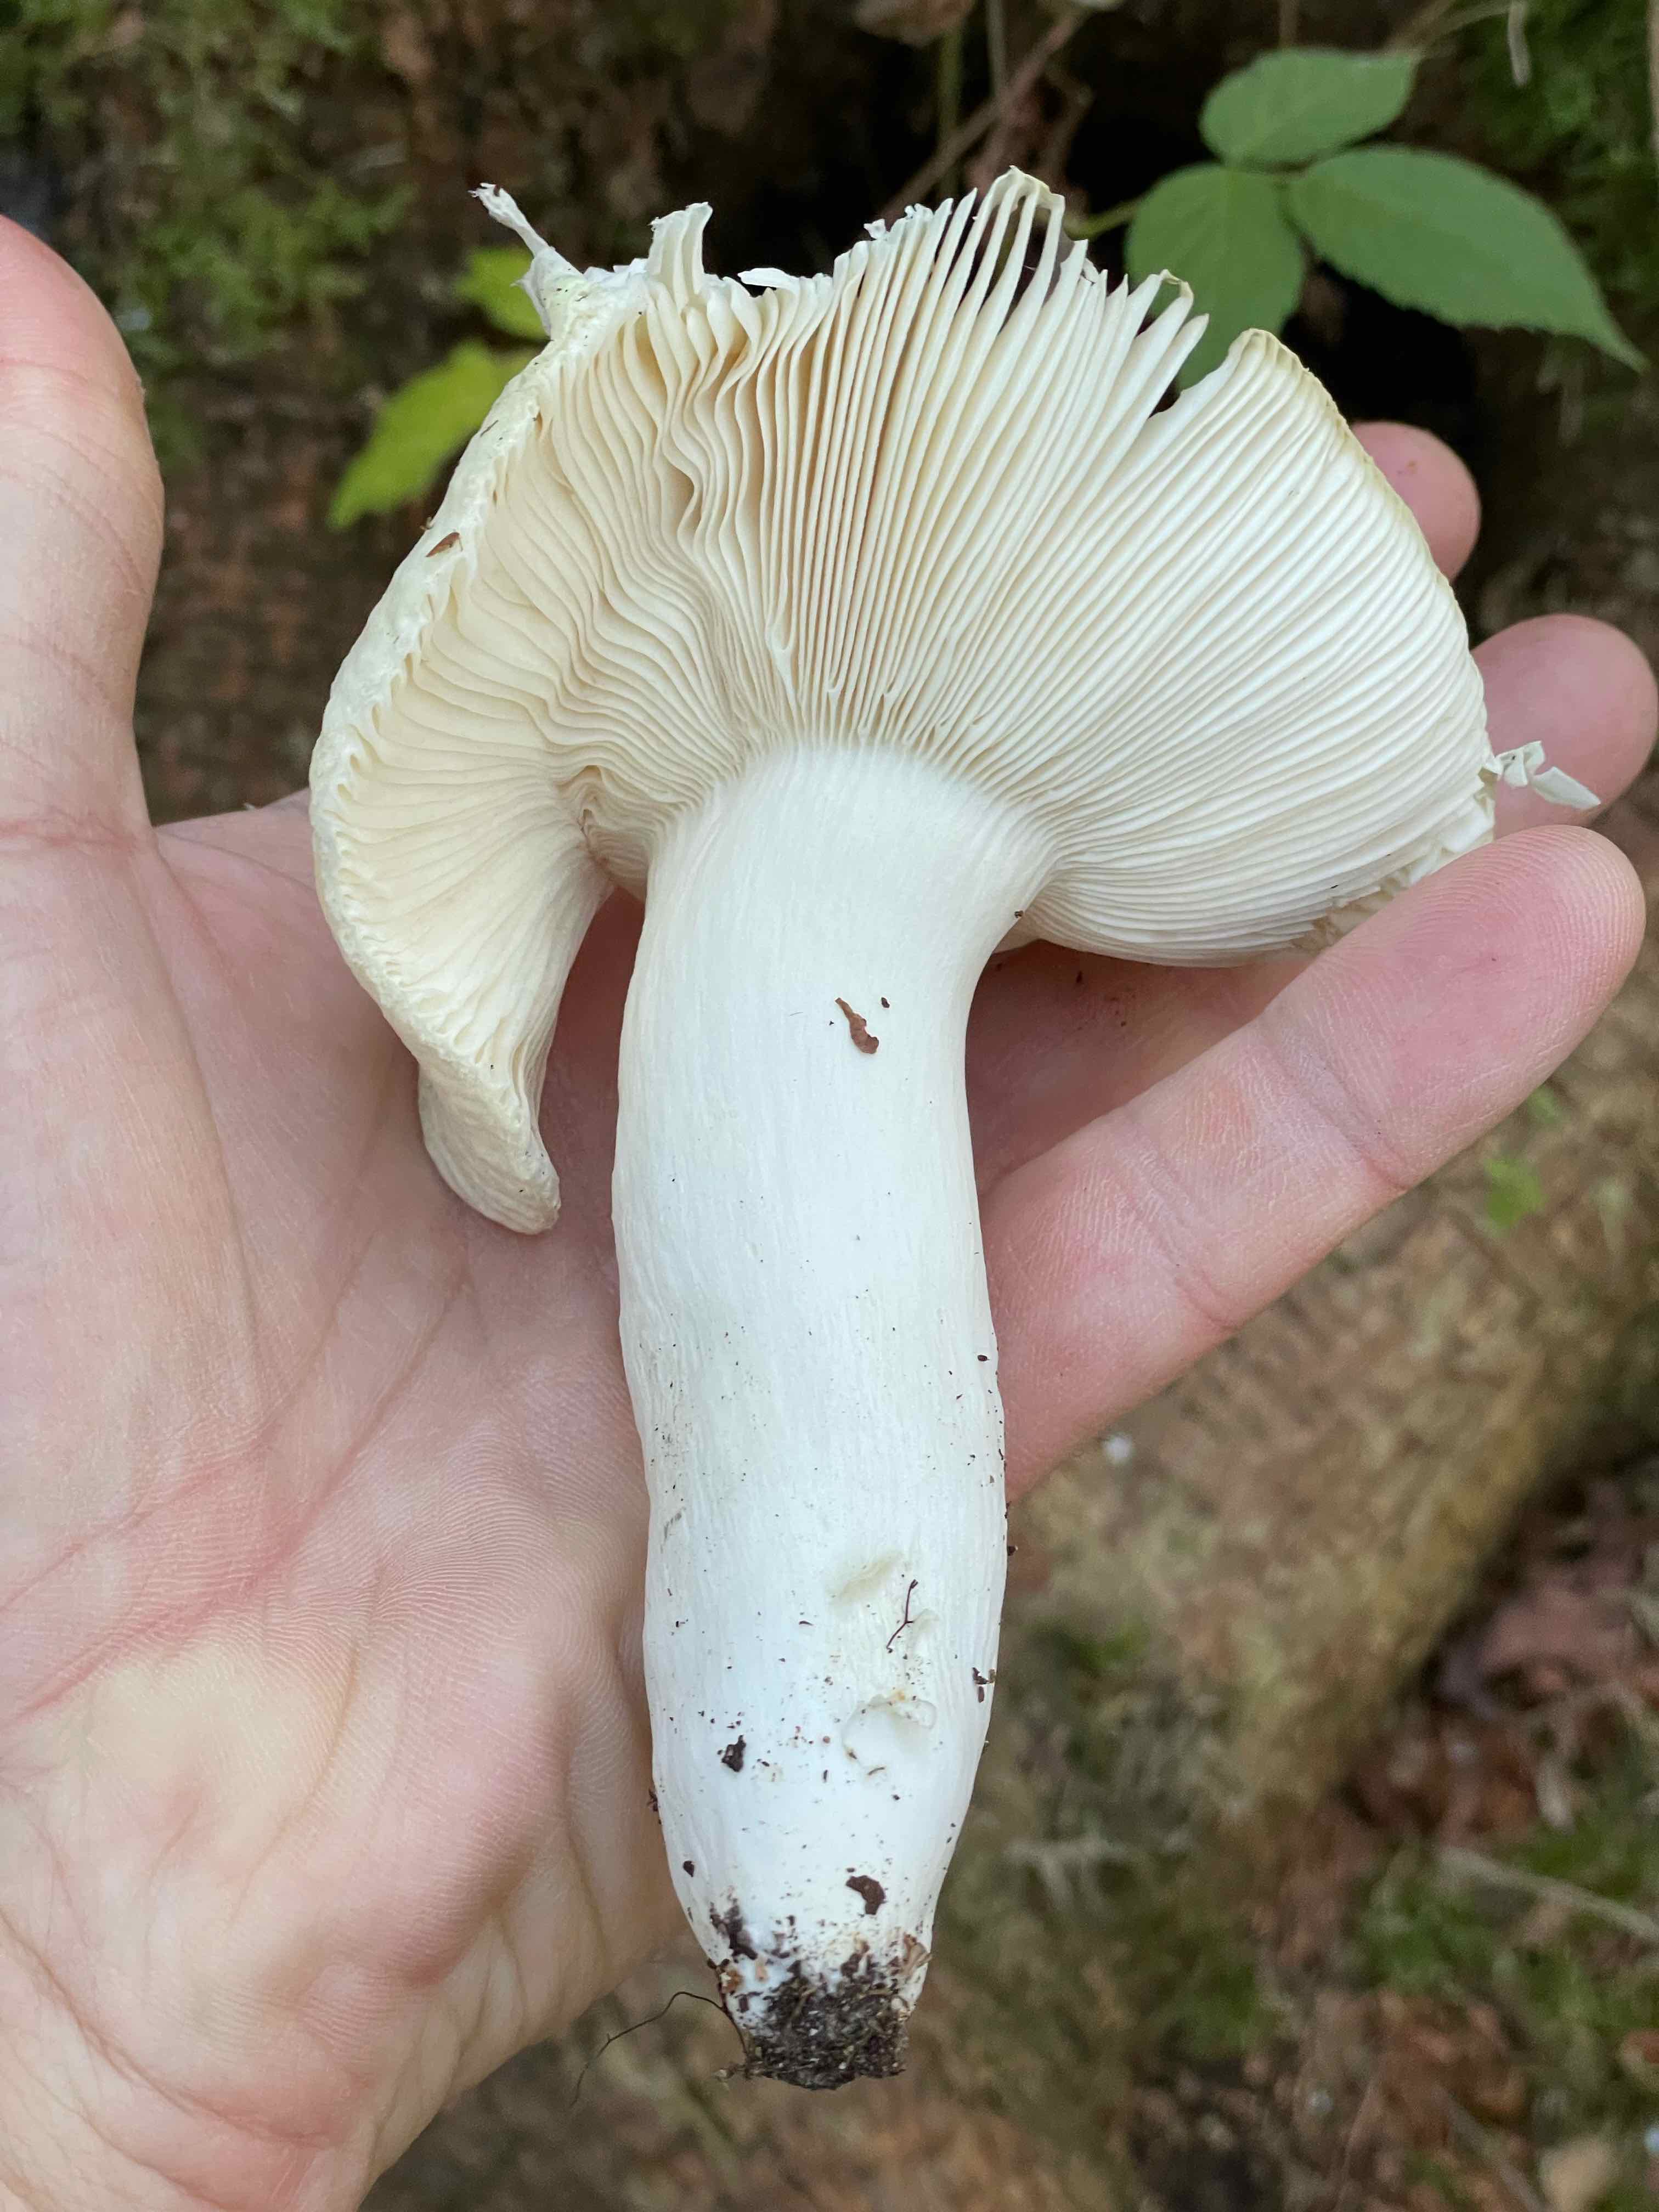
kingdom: Fungi
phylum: Basidiomycota
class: Agaricomycetes
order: Russulales
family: Russulaceae
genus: Russula
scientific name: Russula aeruginea
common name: græsgrøn skørhat
